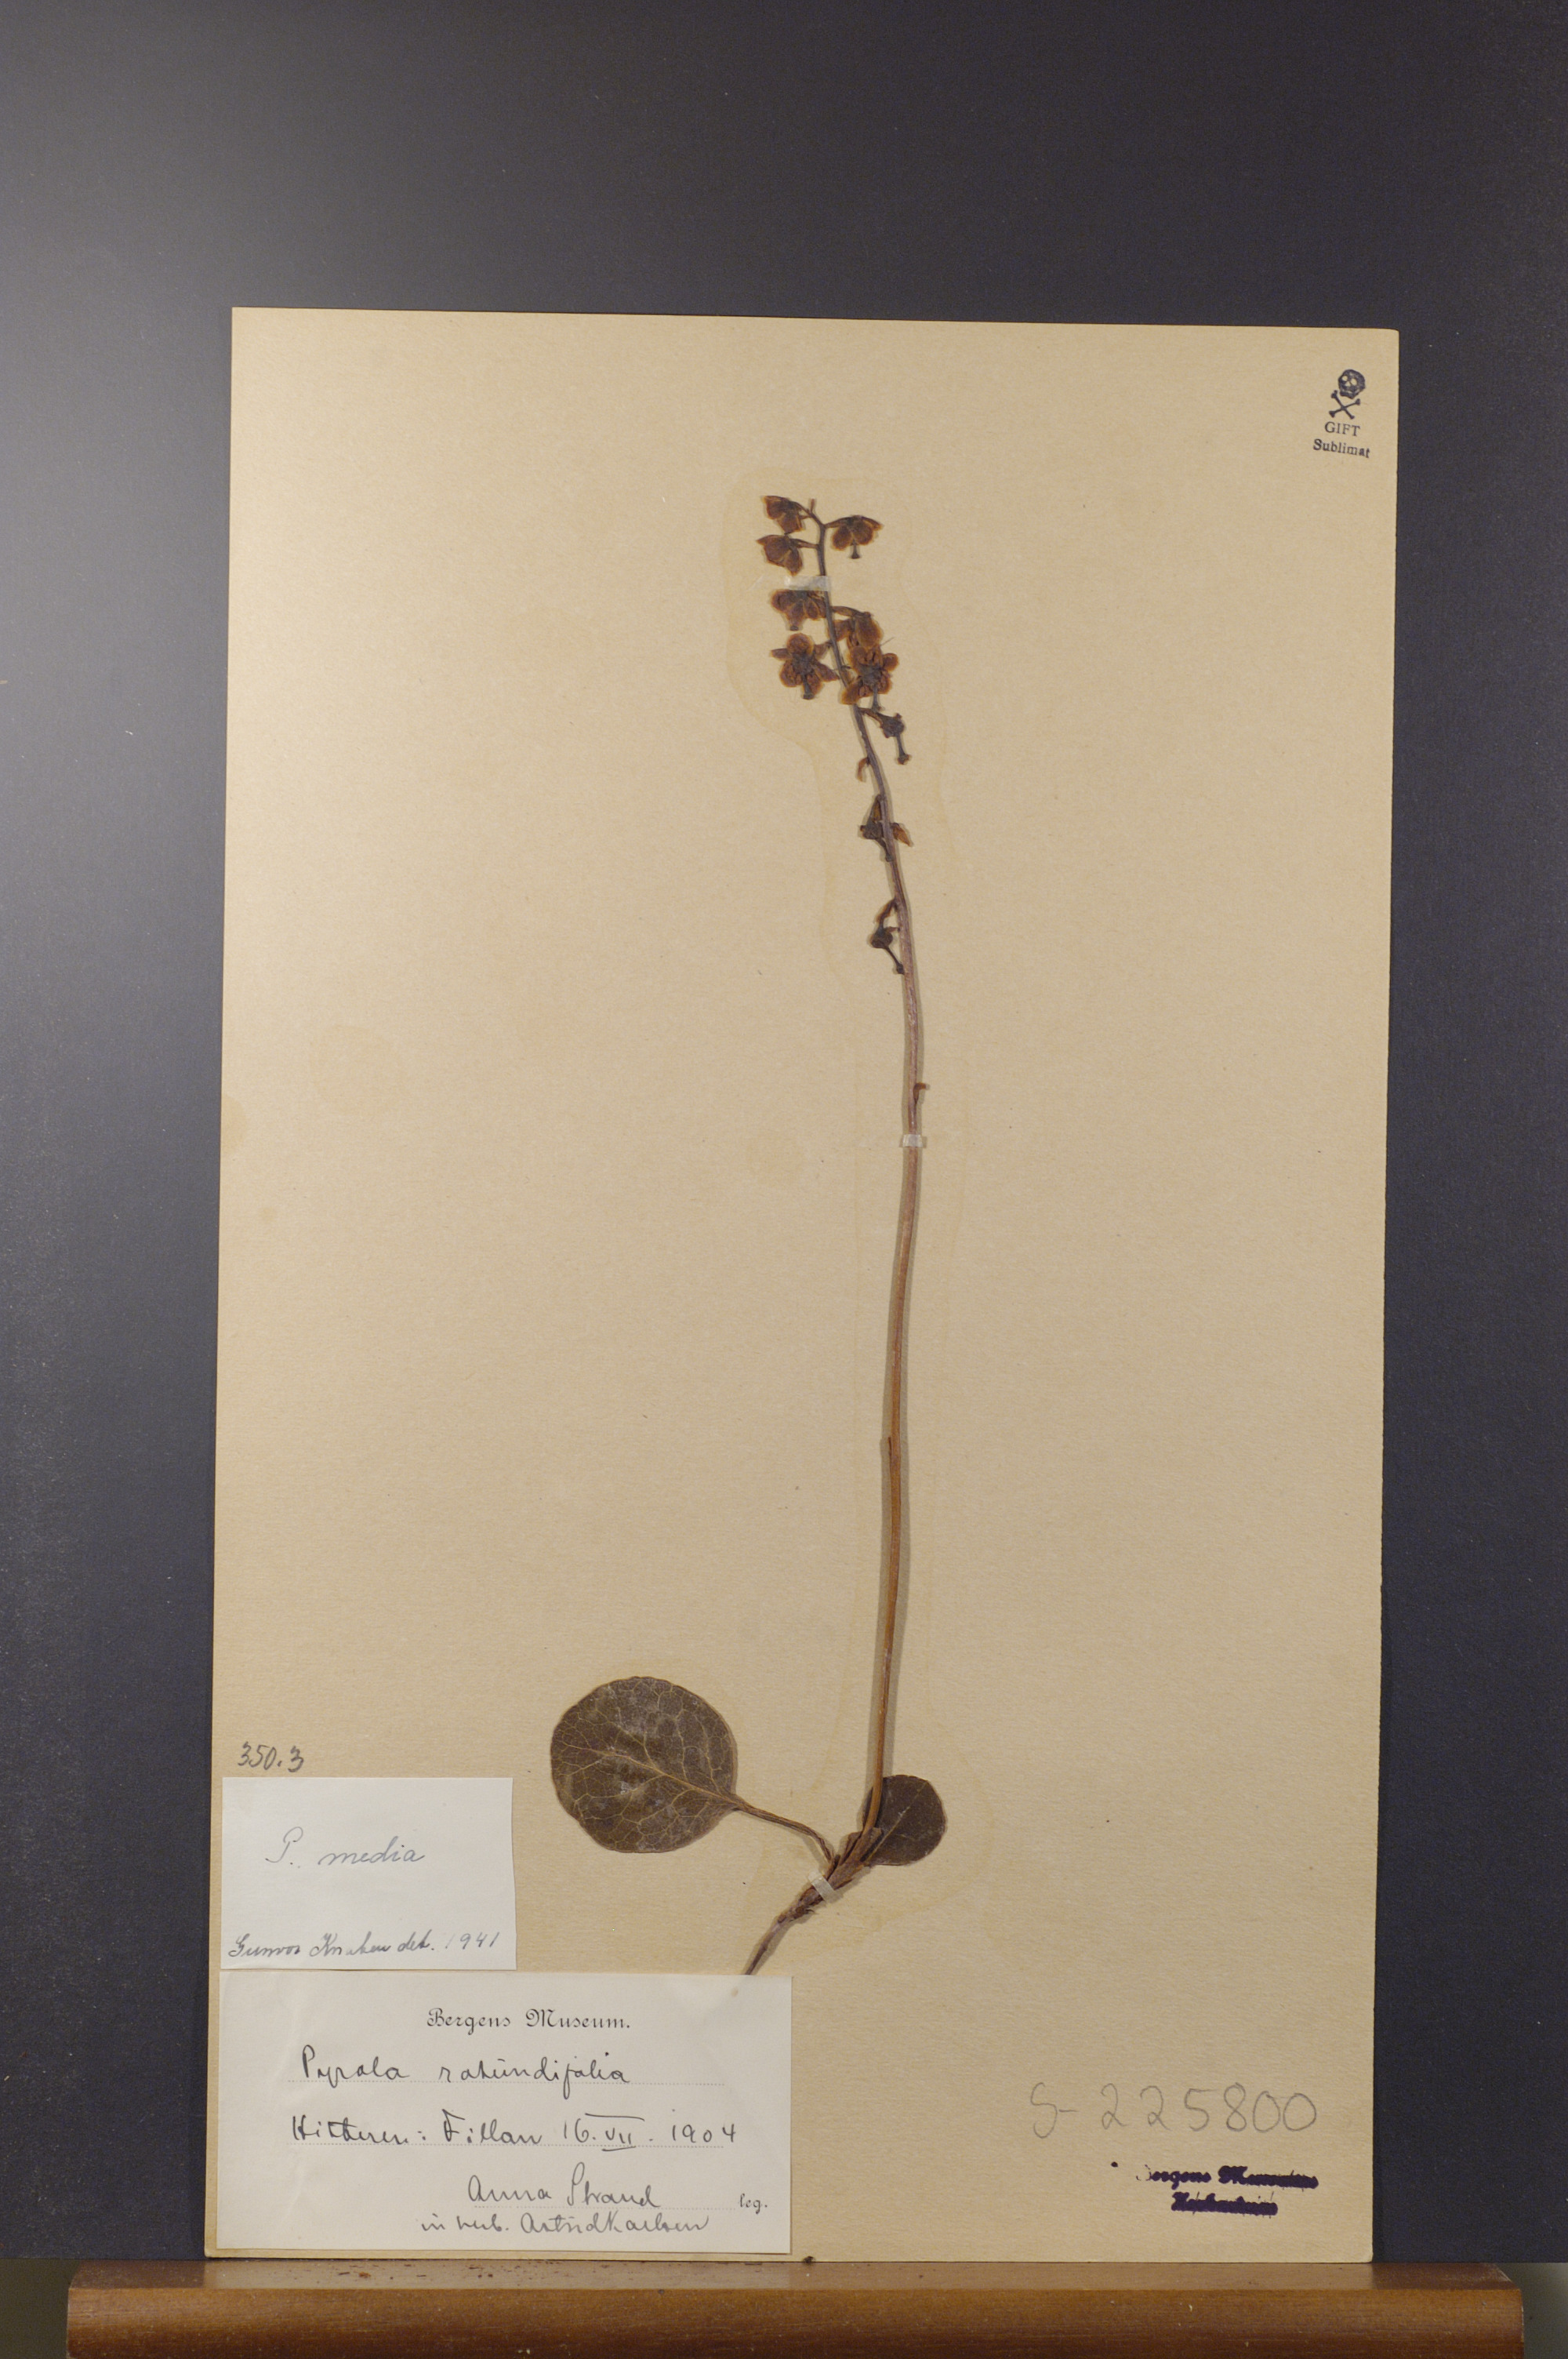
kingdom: Plantae
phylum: Tracheophyta
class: Magnoliopsida
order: Ericales
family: Ericaceae
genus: Pyrola
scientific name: Pyrola media
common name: Intermediate wintergreen
